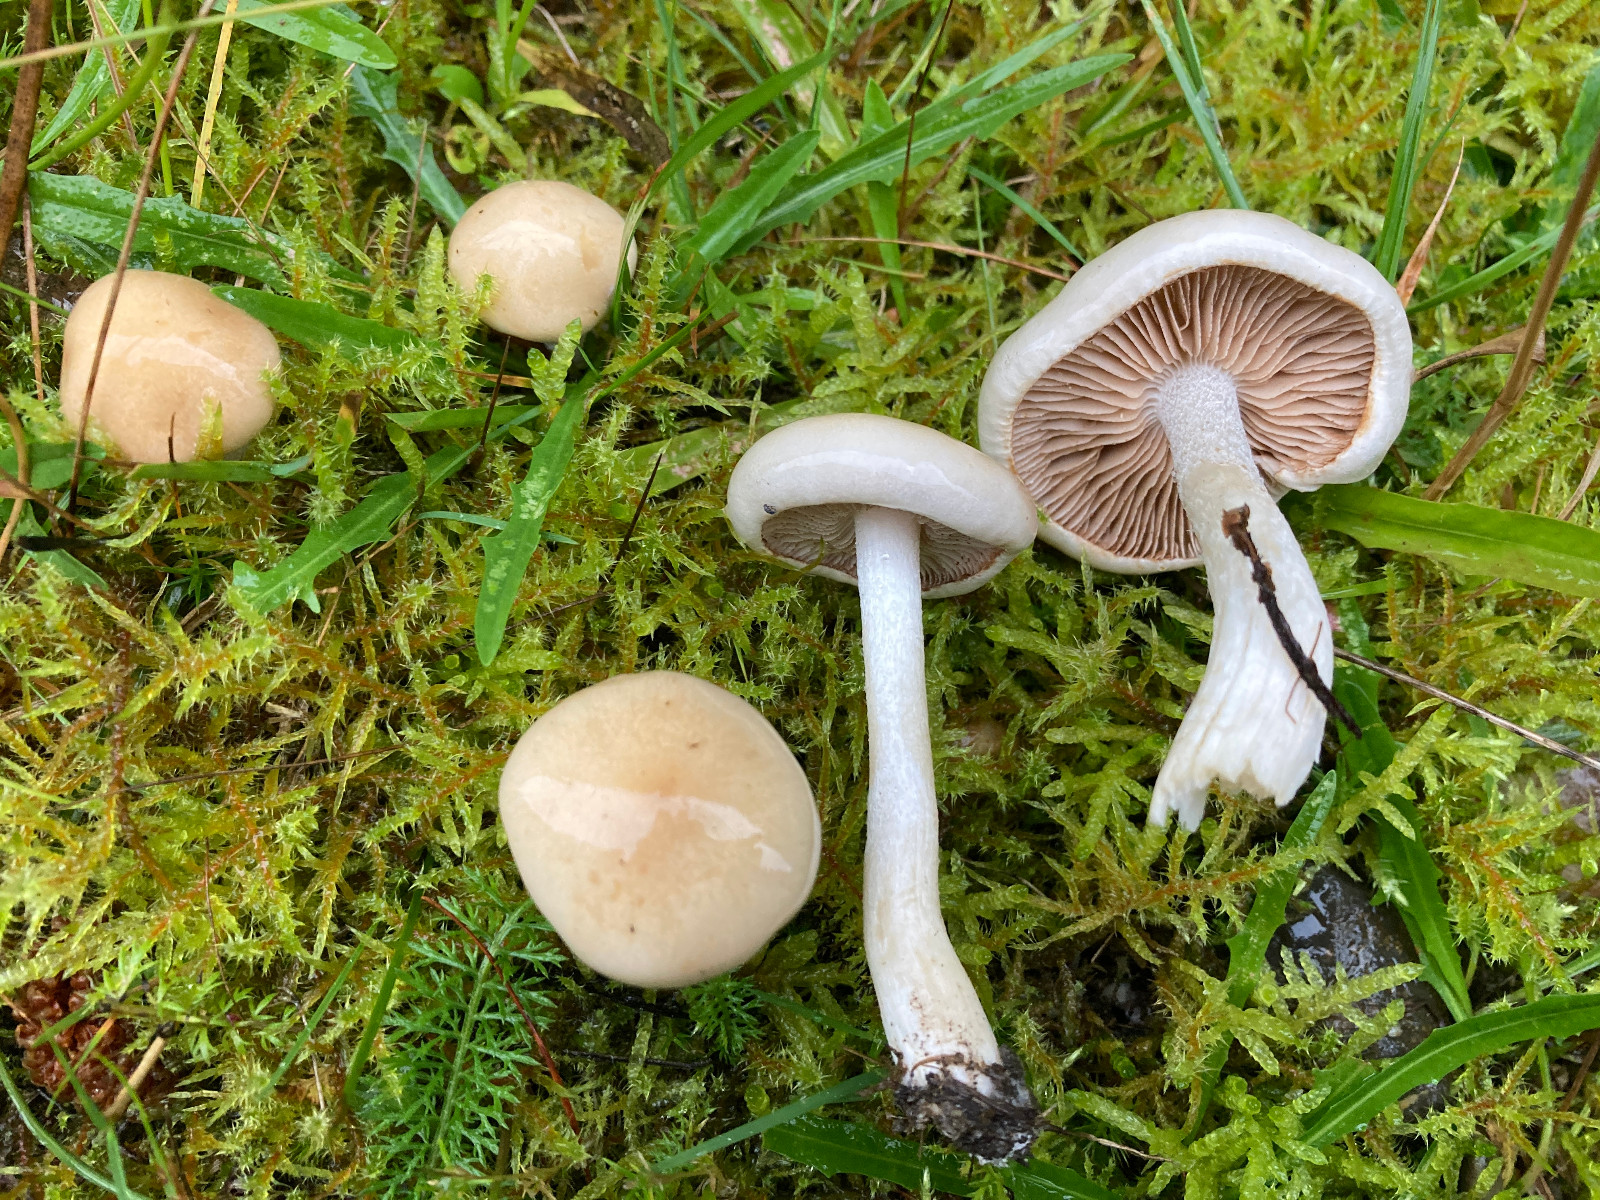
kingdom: Fungi
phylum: Basidiomycota
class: Agaricomycetes
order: Agaricales
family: Hymenogastraceae
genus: Hebeloma
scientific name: Hebeloma
